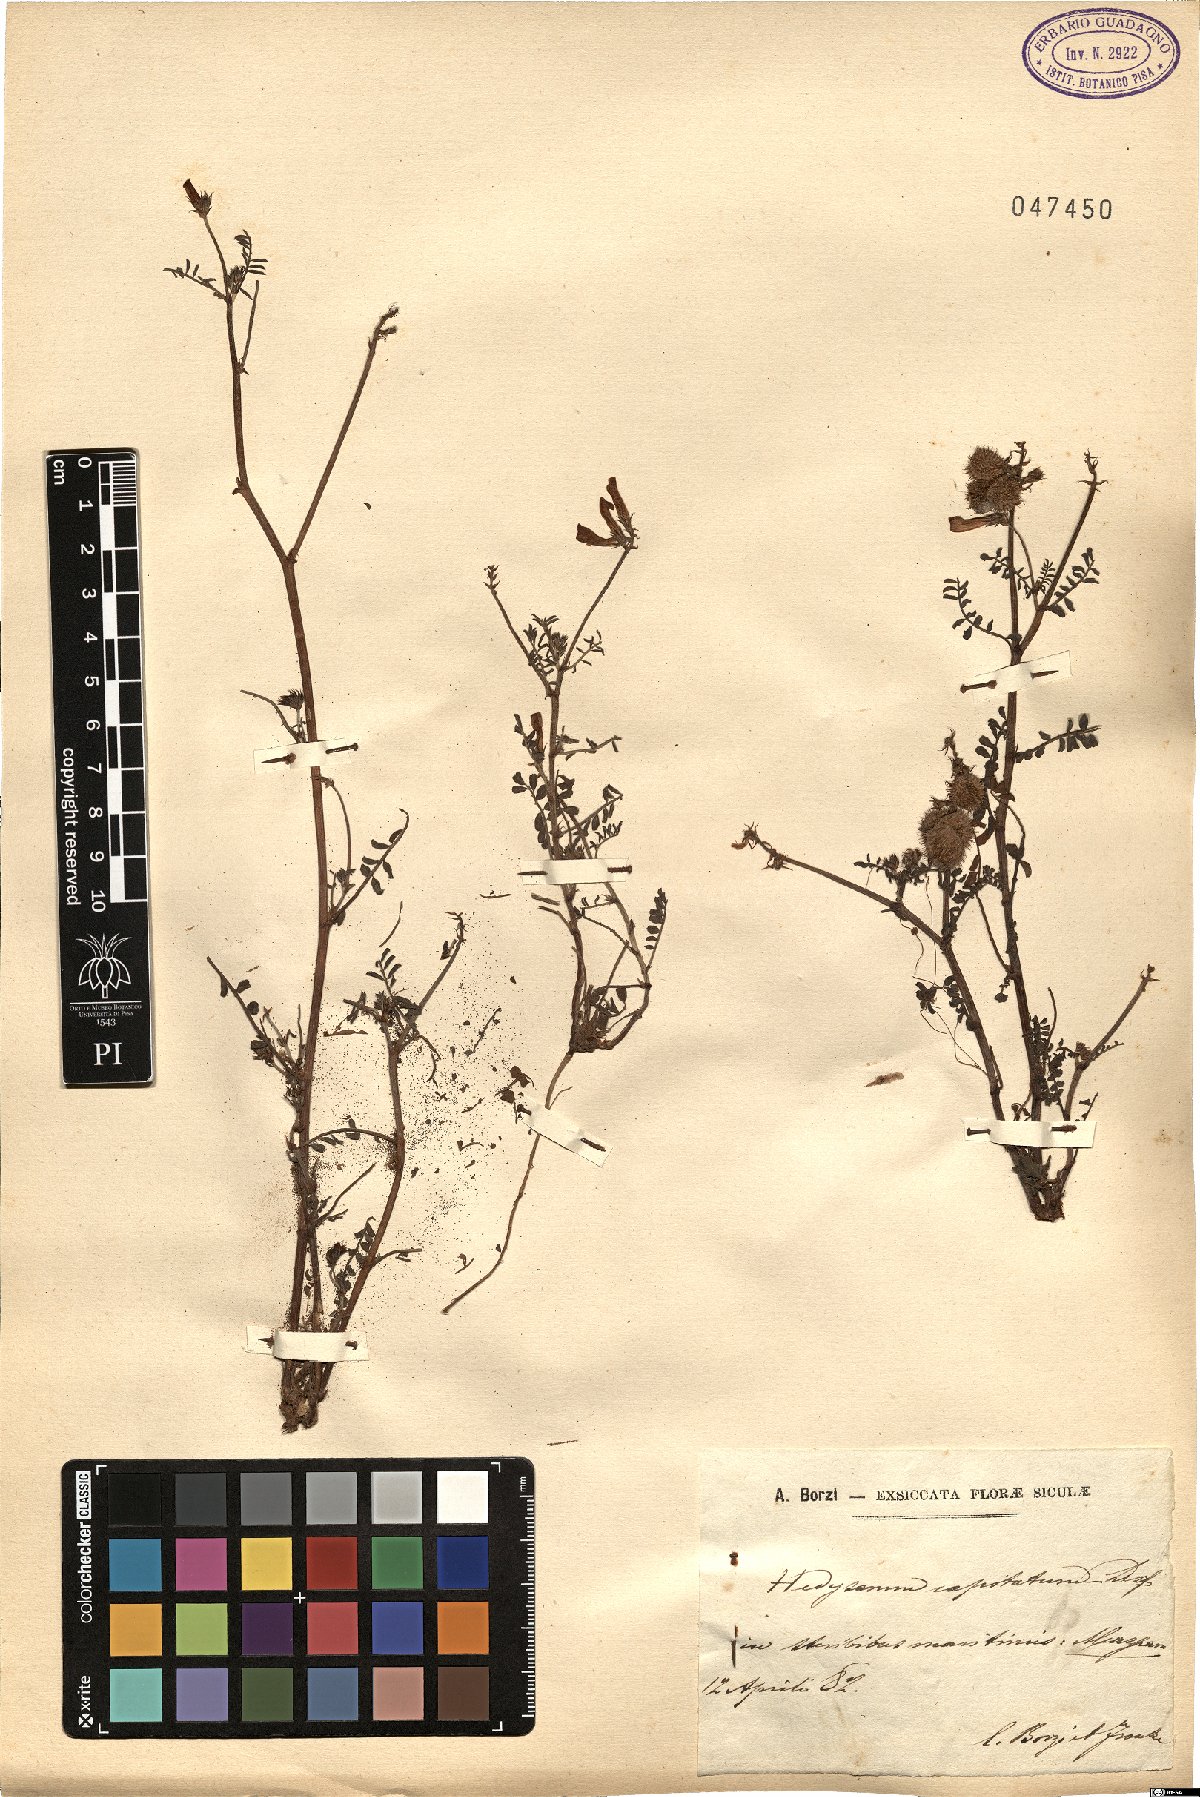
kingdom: Plantae
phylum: Tracheophyta
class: Magnoliopsida
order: Fabales
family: Fabaceae
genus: Sulla
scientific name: Sulla glomerata
